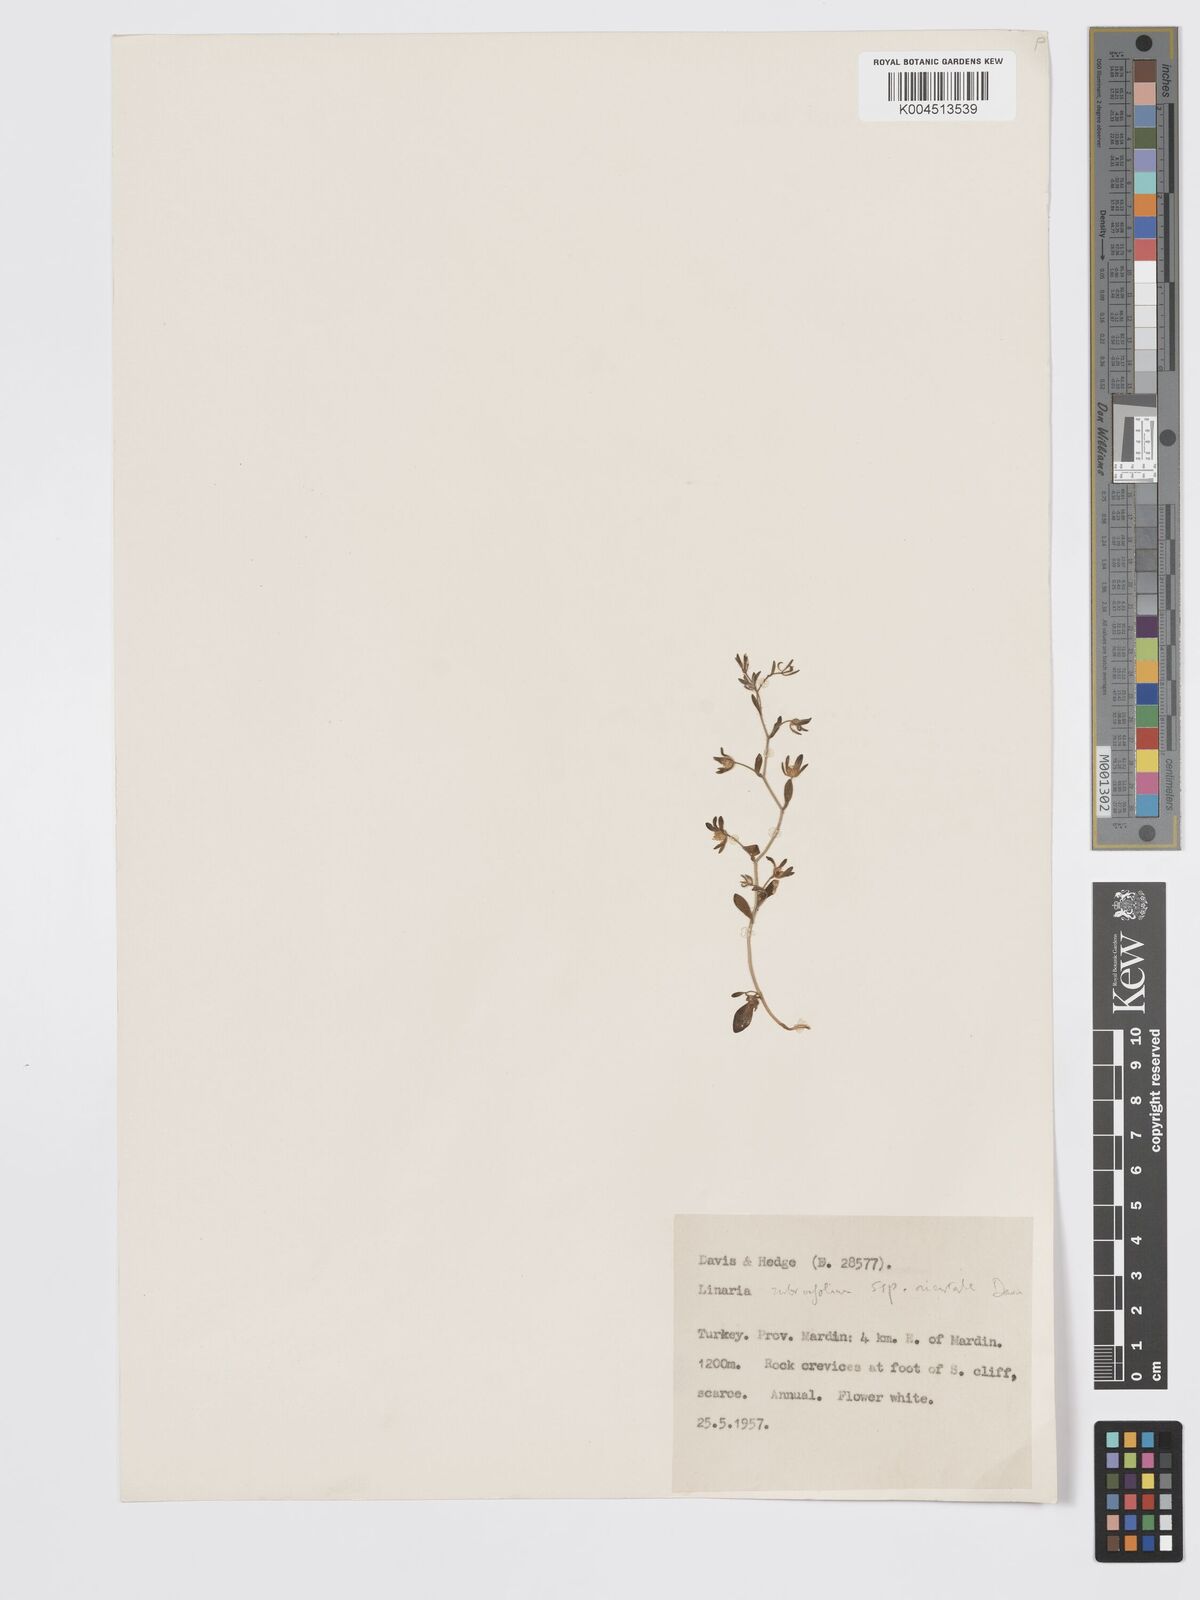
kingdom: Plantae
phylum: Tracheophyta
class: Magnoliopsida
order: Lamiales
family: Plantaginaceae
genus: Chaenorhinum
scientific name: Chaenorhinum rubrifolium
